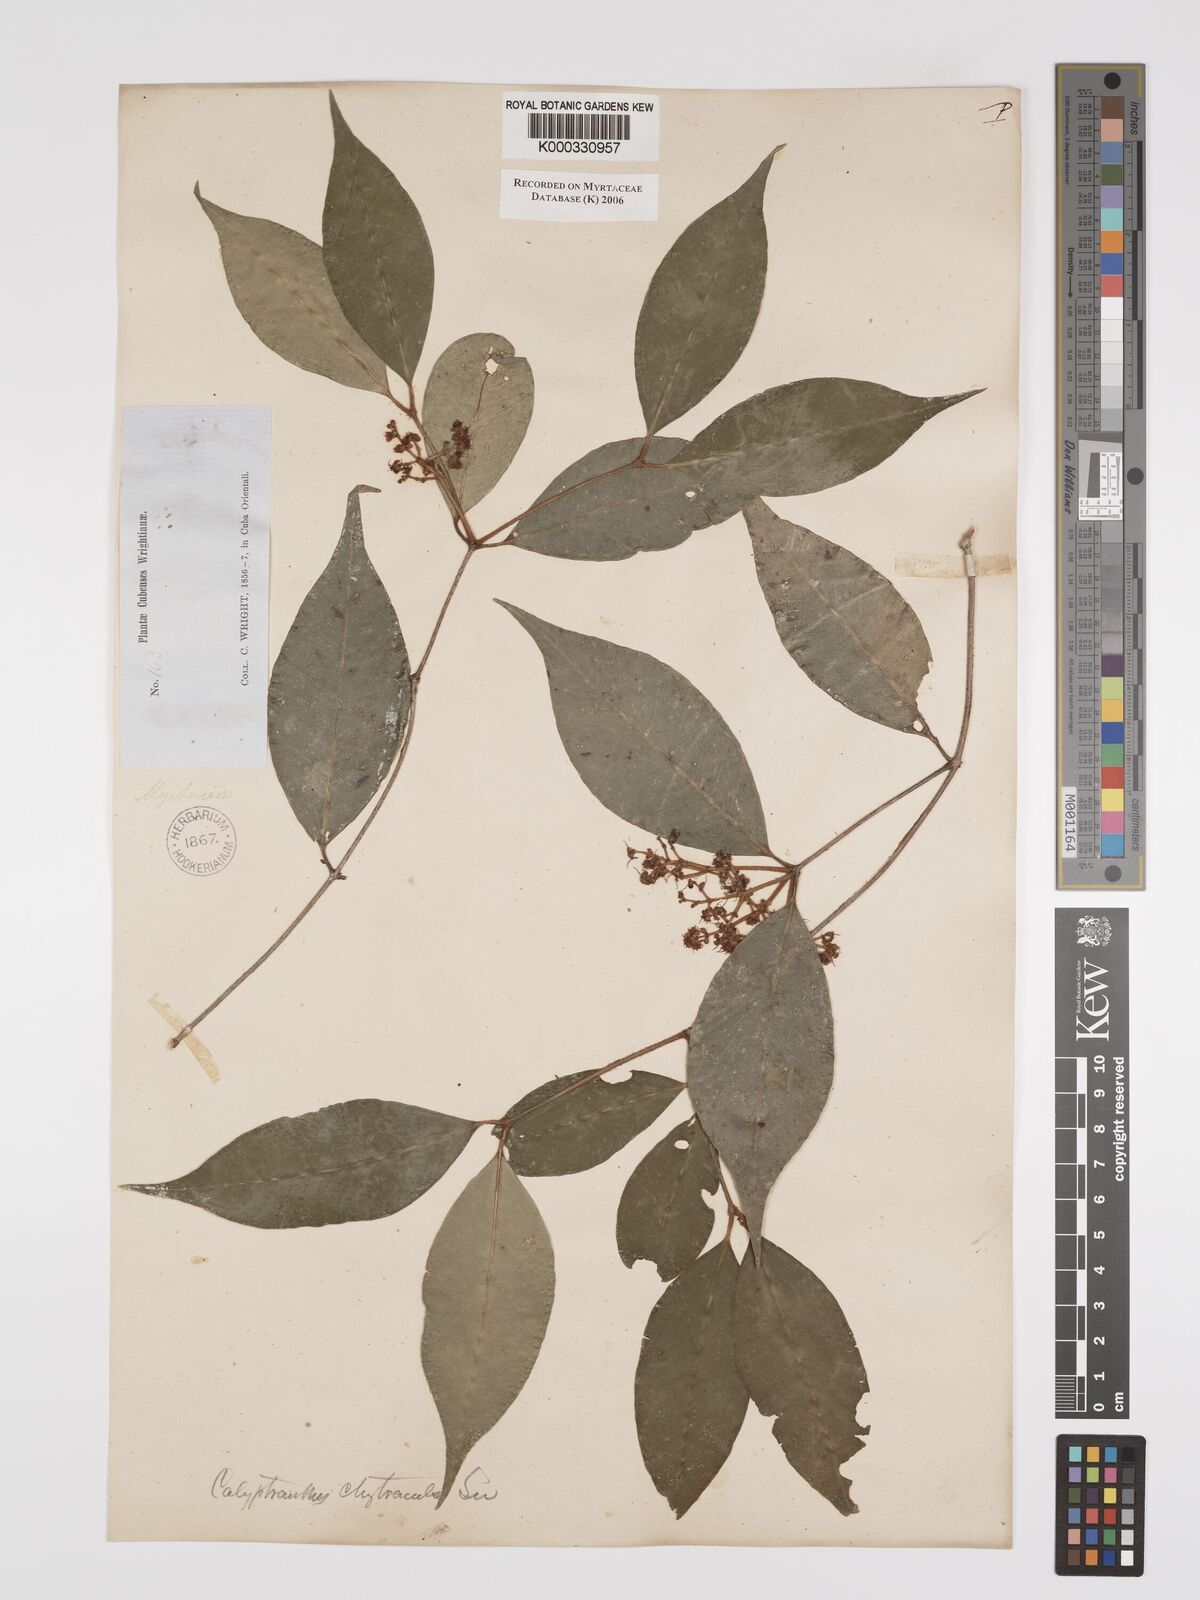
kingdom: Plantae
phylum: Tracheophyta
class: Magnoliopsida
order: Myrtales
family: Myrtaceae
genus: Myrcia
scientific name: Myrcia chytraculia
